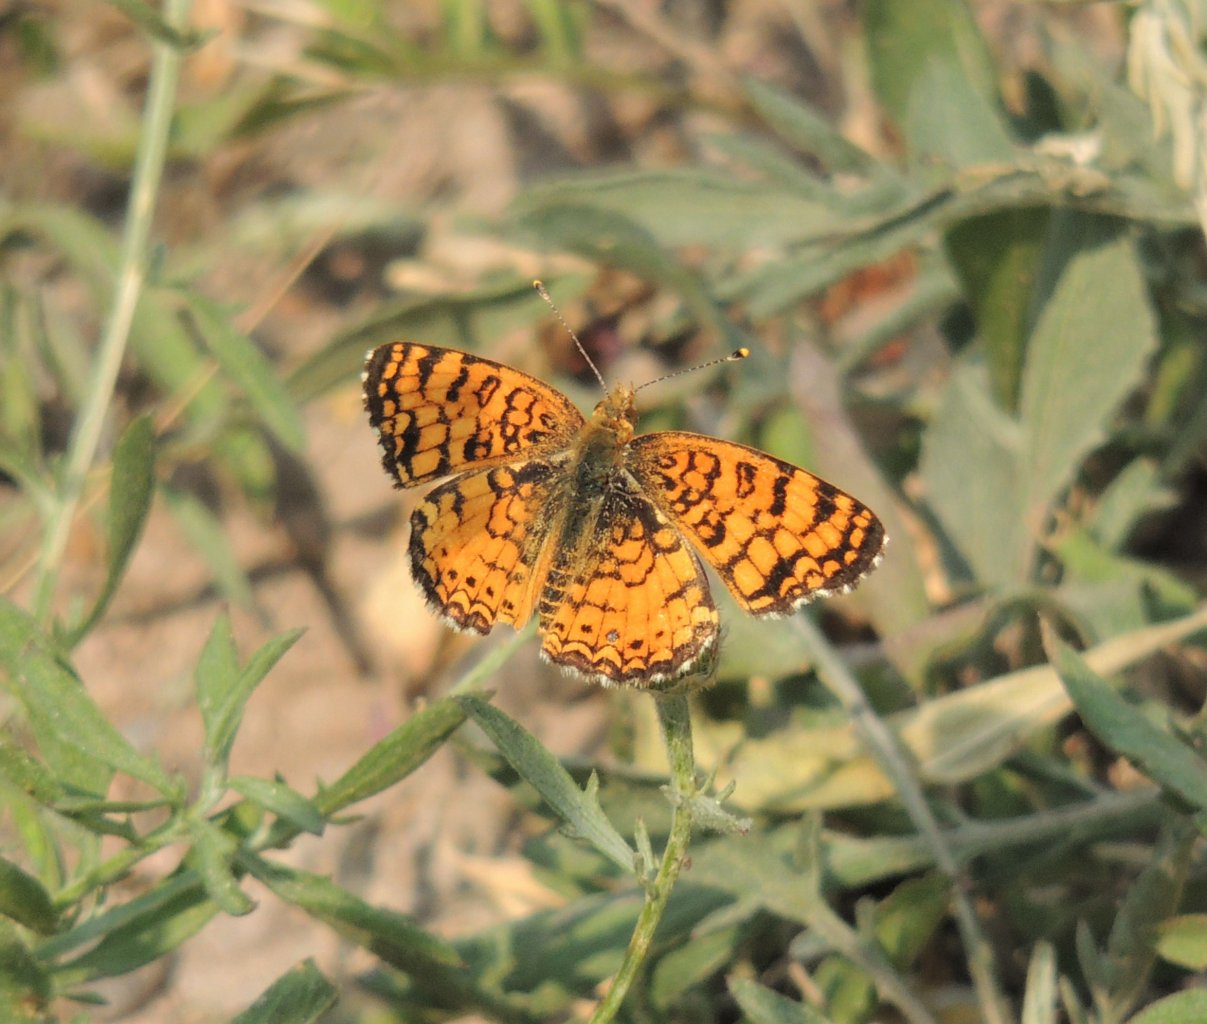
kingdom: Animalia
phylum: Arthropoda
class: Insecta
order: Lepidoptera
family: Nymphalidae
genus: Eresia
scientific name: Eresia aveyrona
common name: Mylitta Crescent
